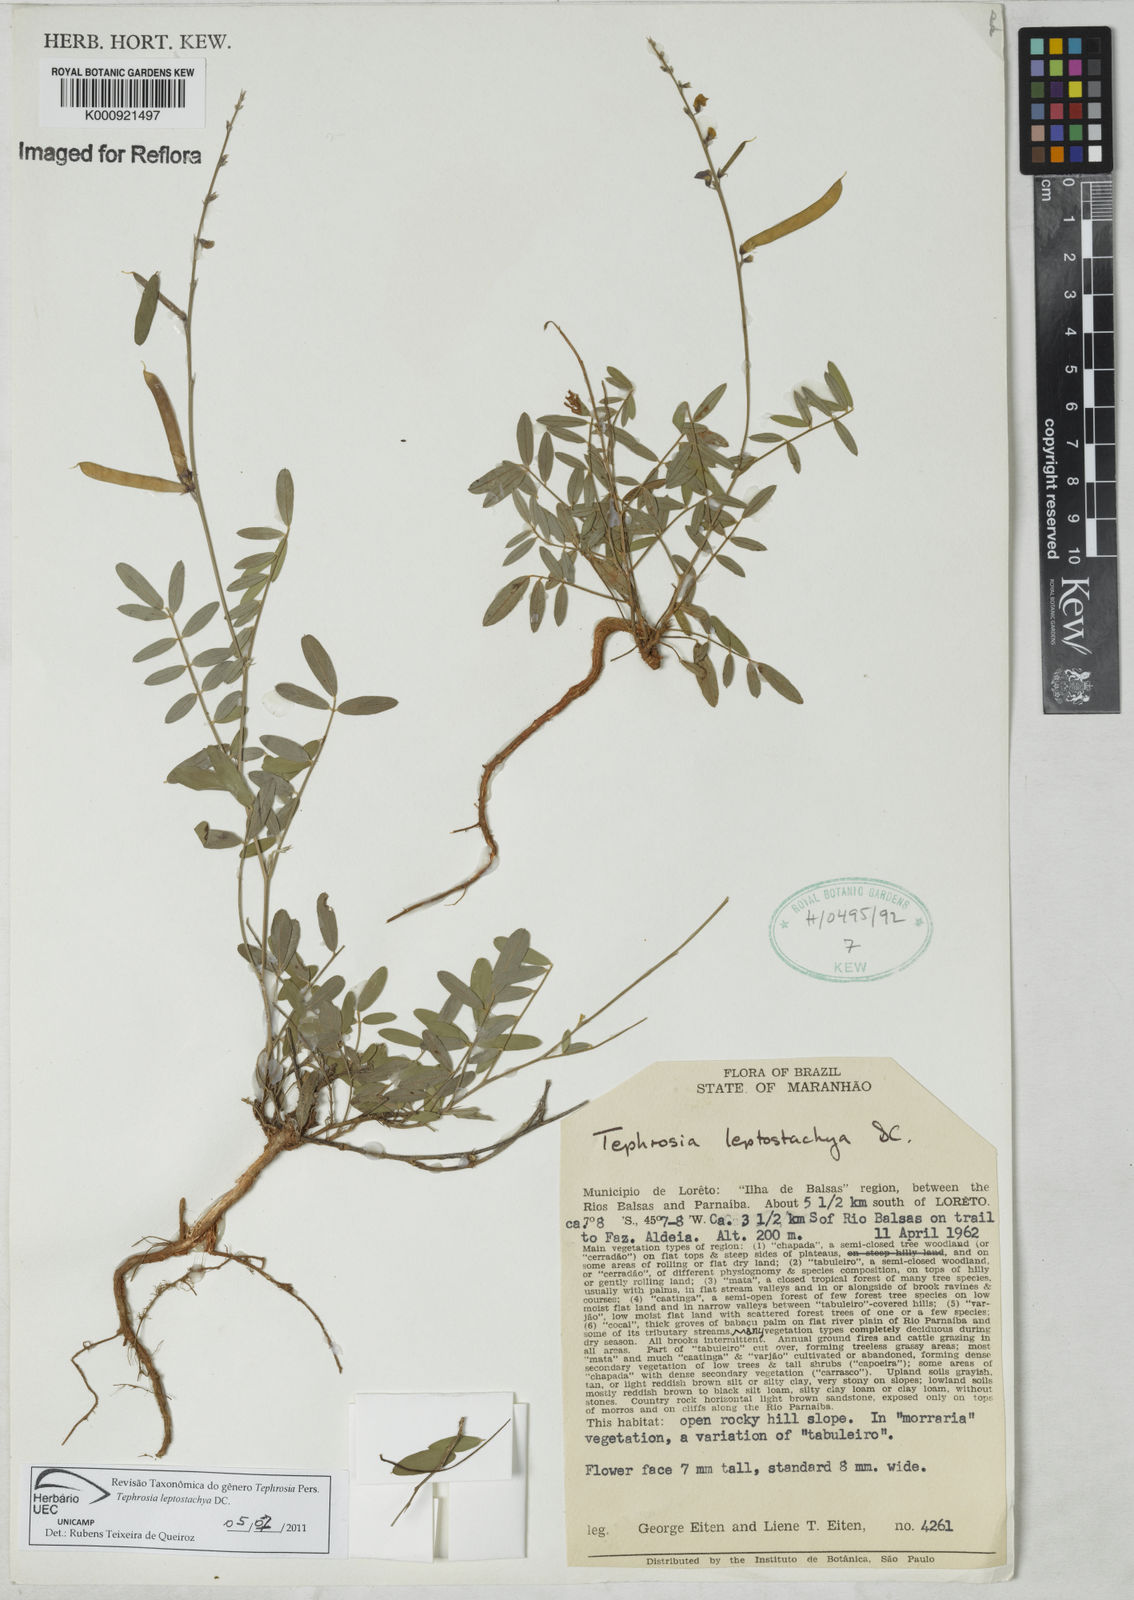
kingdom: Plantae
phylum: Tracheophyta
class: Magnoliopsida
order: Fabales
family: Fabaceae
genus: Tephrosia
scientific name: Tephrosia purpurea
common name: Fishpoison
